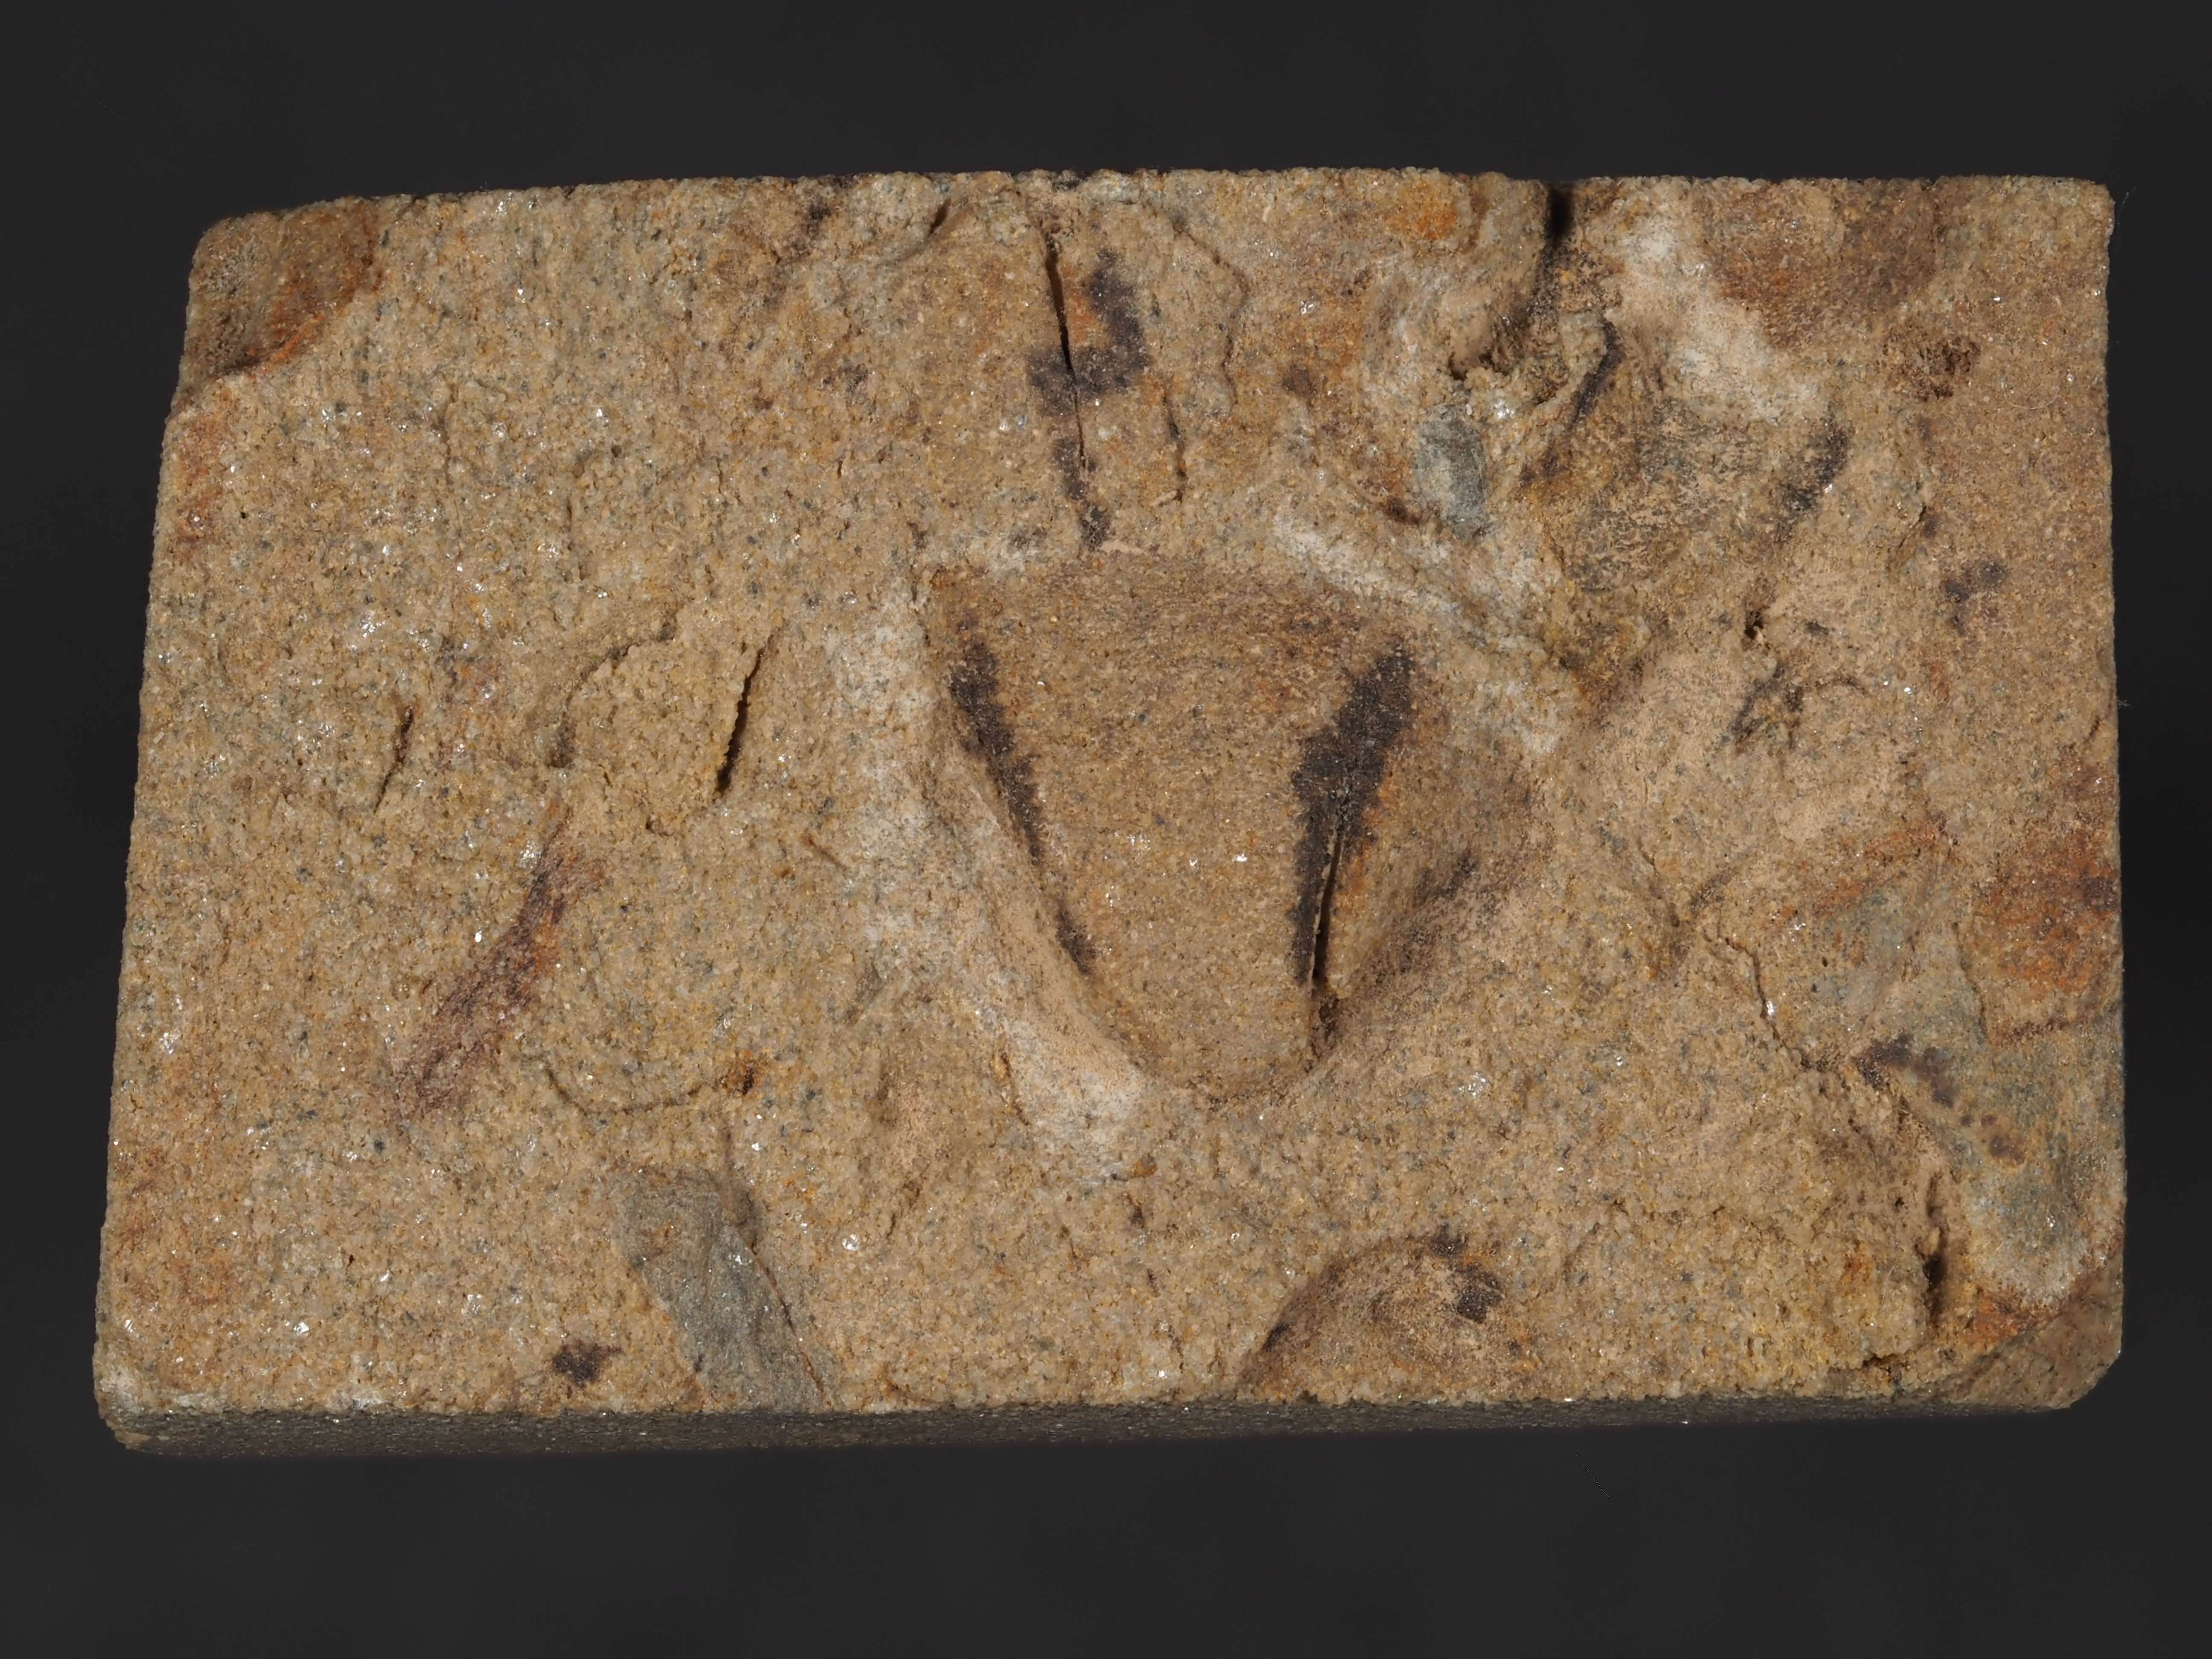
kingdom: Animalia
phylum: Mollusca
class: Bivalvia
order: Nuculanida
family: Cucullellidae
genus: Nuculites
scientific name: Nuculites
